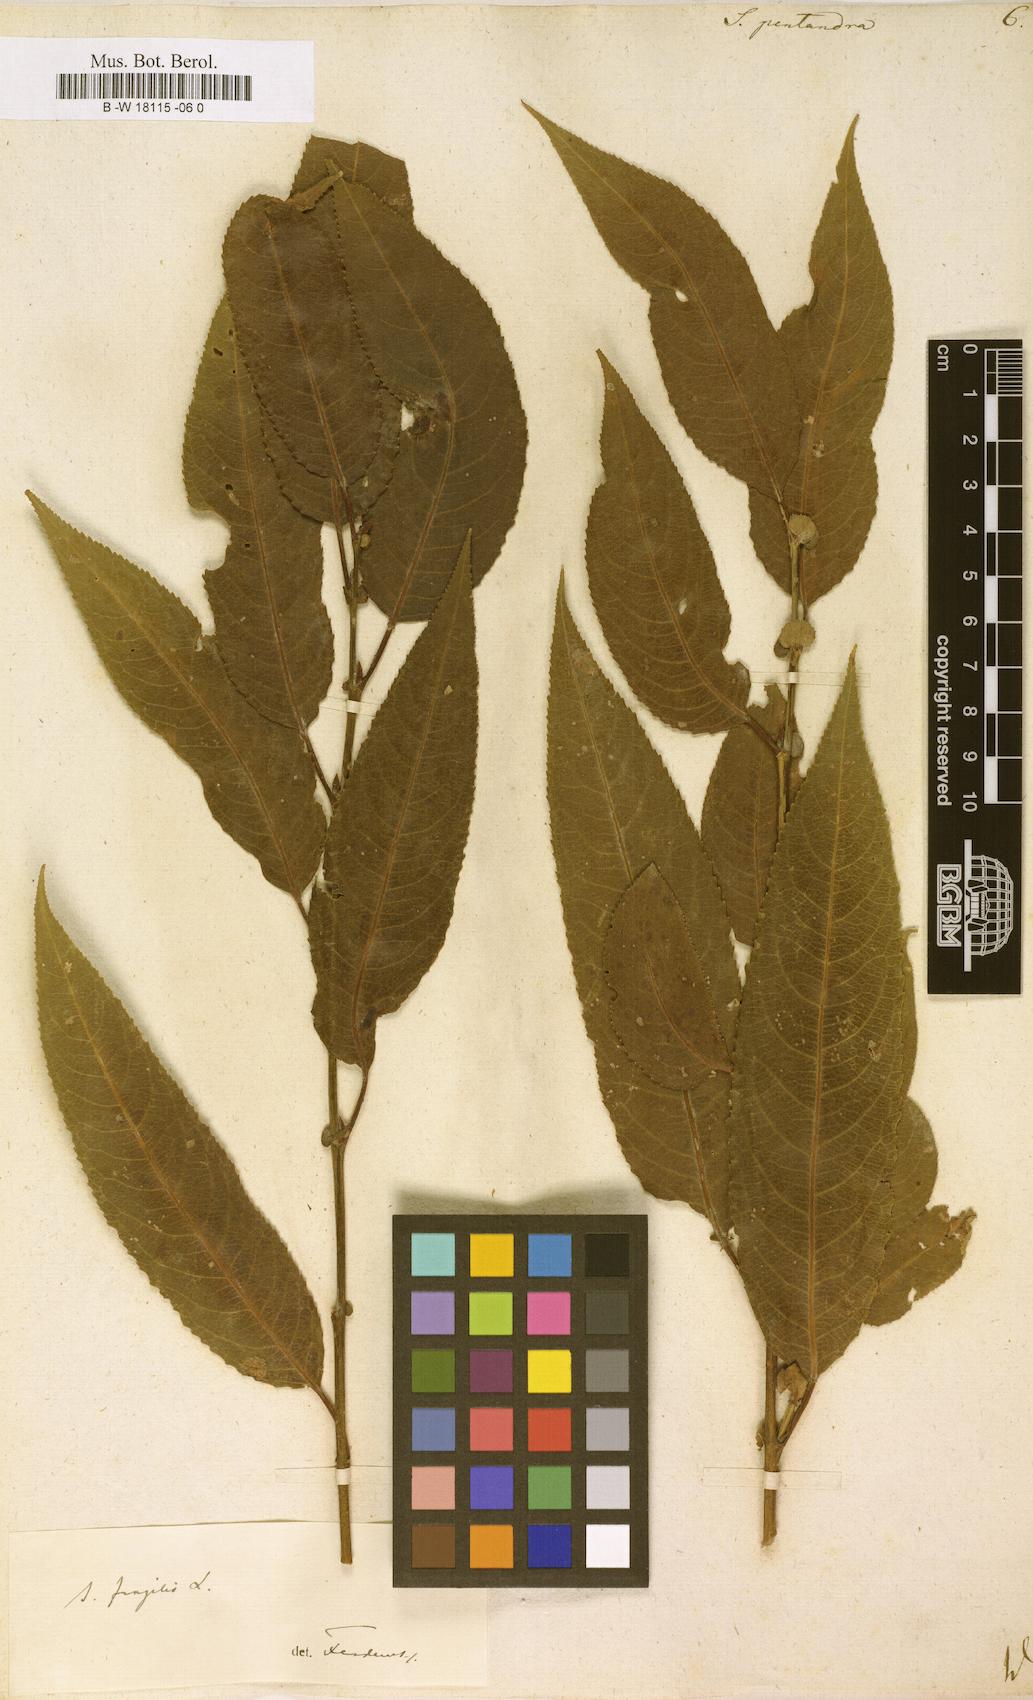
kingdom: Plantae
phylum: Tracheophyta
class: Magnoliopsida
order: Malpighiales
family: Salicaceae
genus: Salix
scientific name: Salix pentandra
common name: Bay willow
